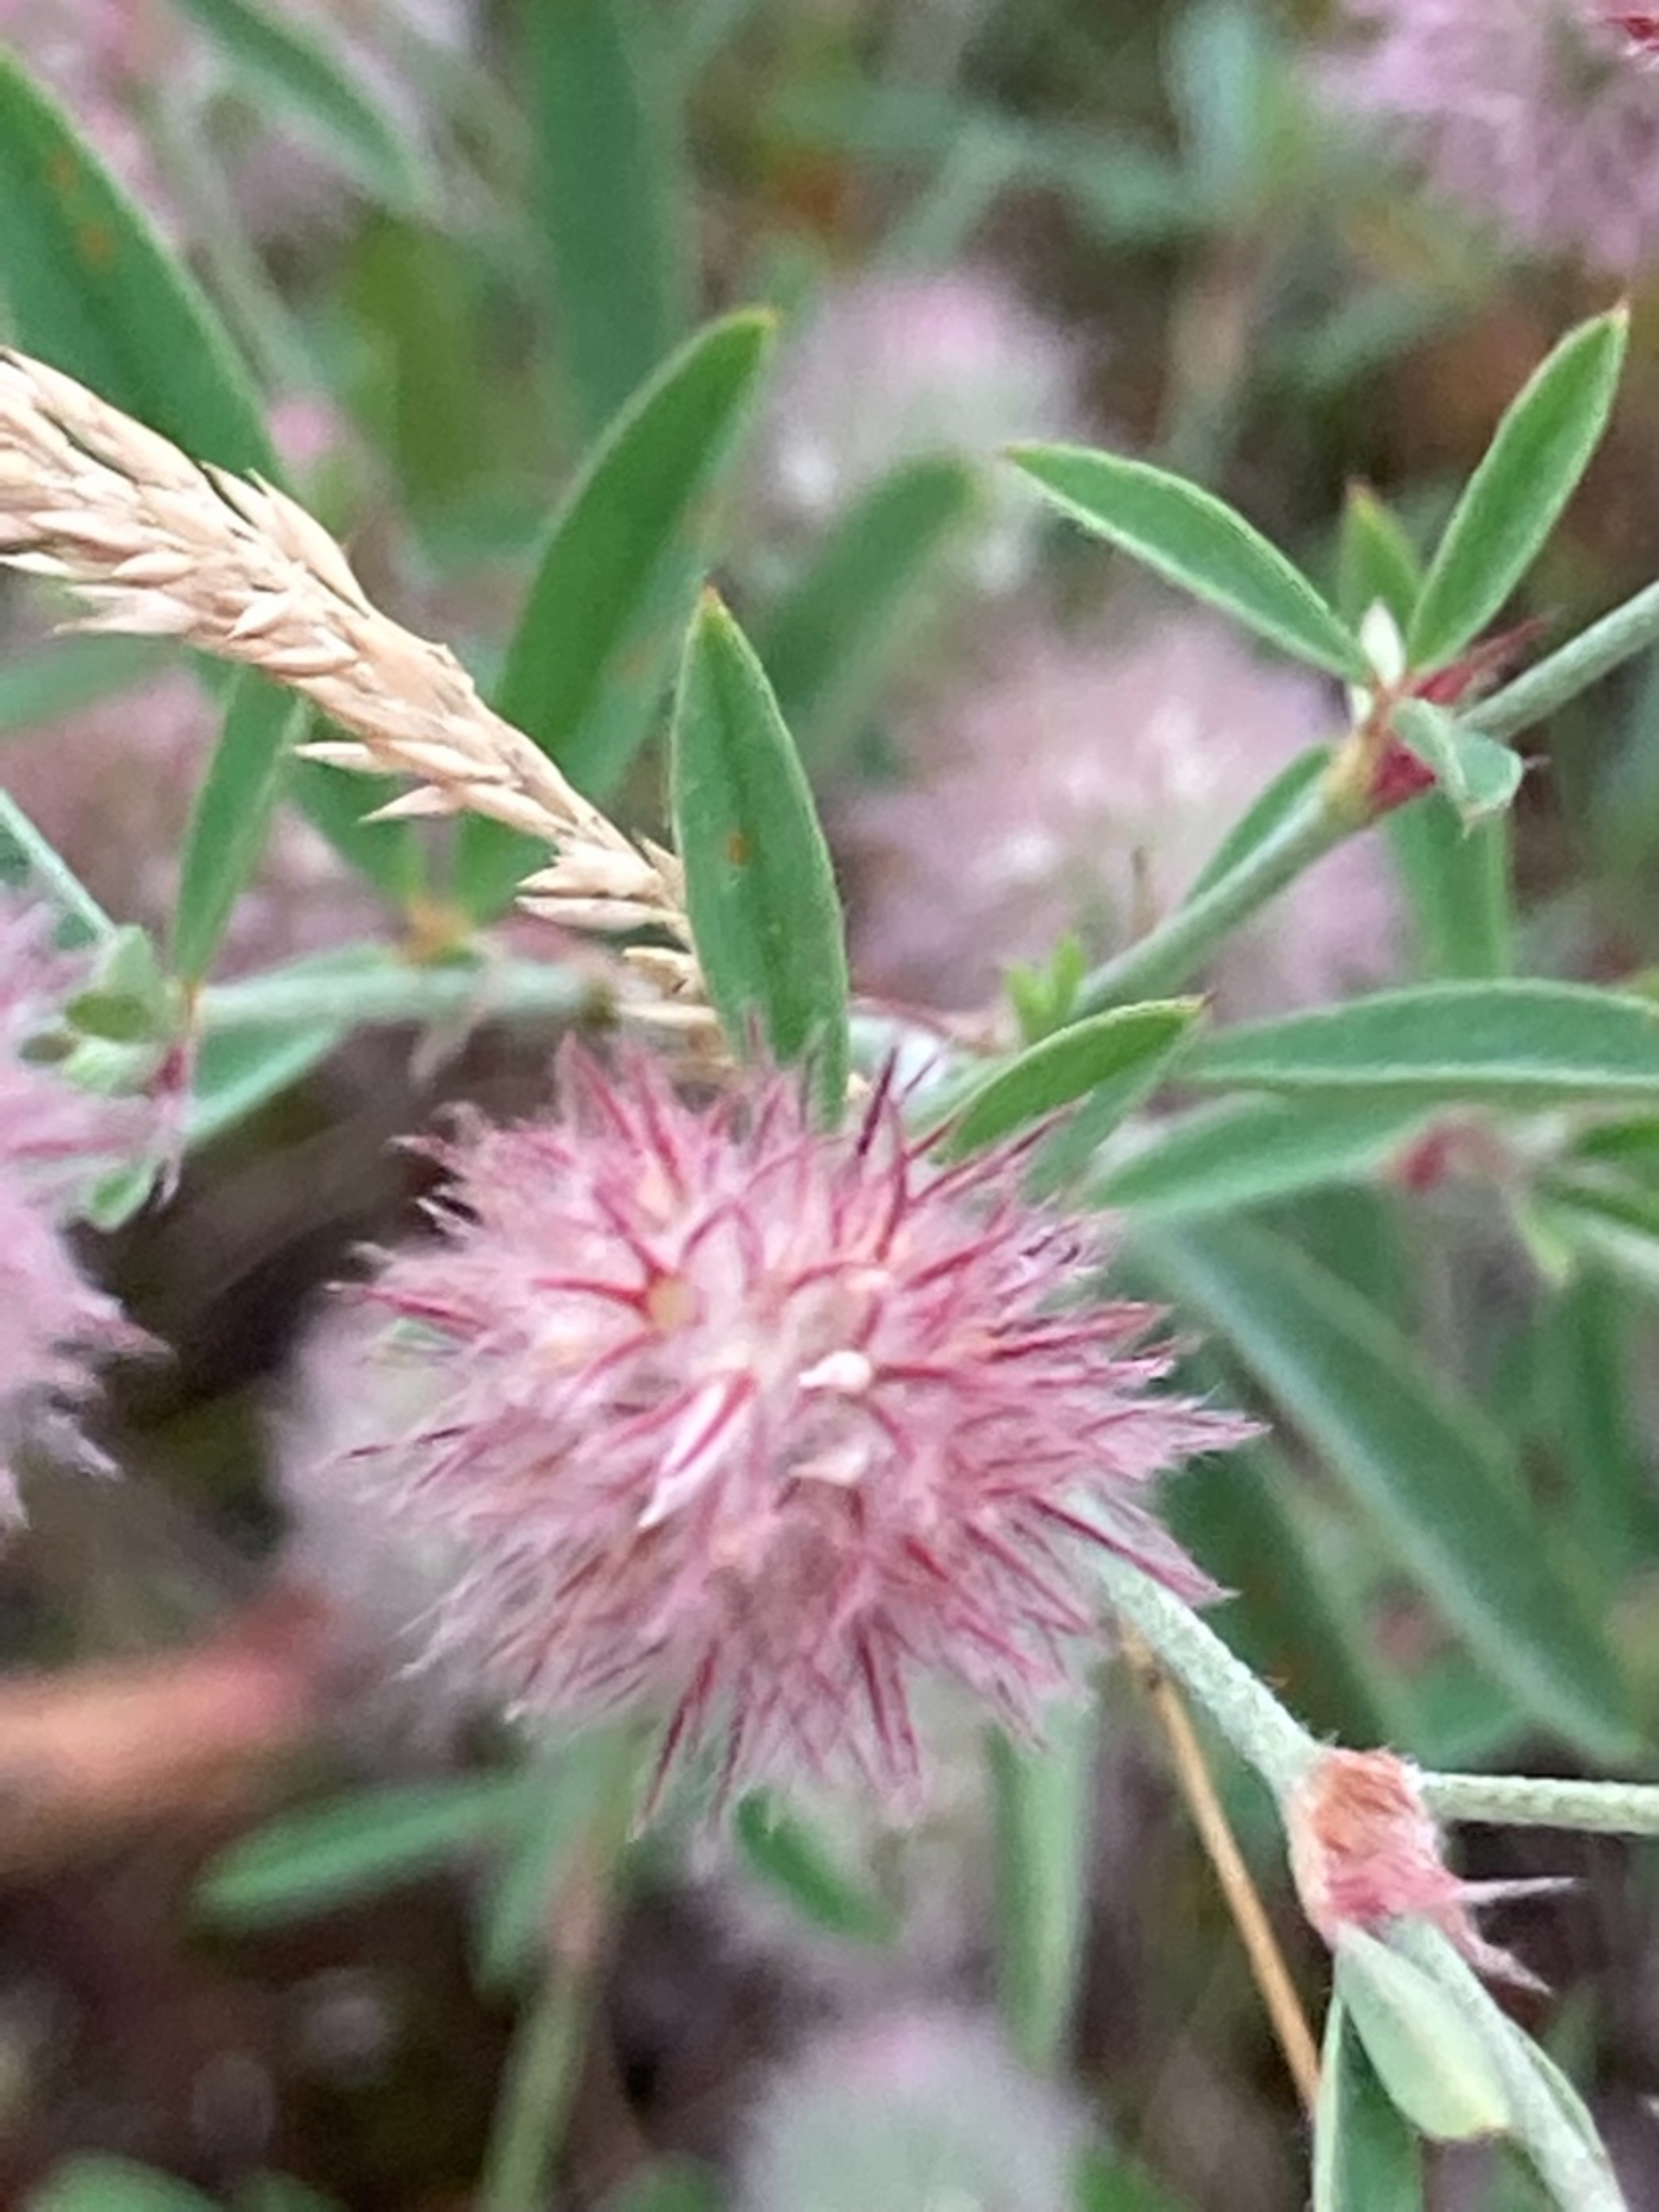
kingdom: Plantae
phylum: Tracheophyta
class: Magnoliopsida
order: Fabales
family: Fabaceae
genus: Trifolium
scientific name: Trifolium arvense
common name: Hare-kløver
